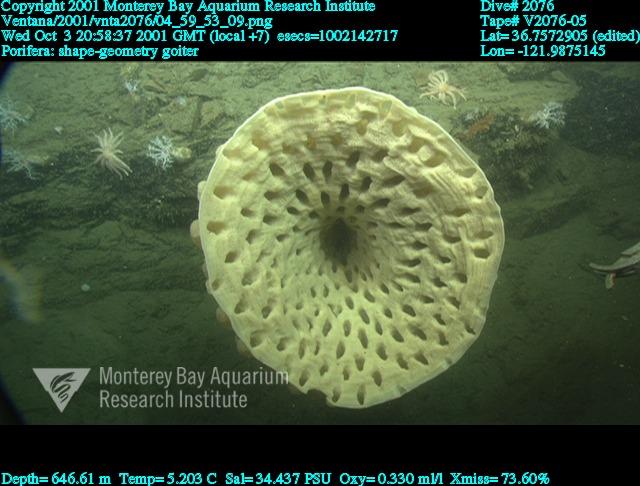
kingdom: Animalia
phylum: Porifera
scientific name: Porifera
